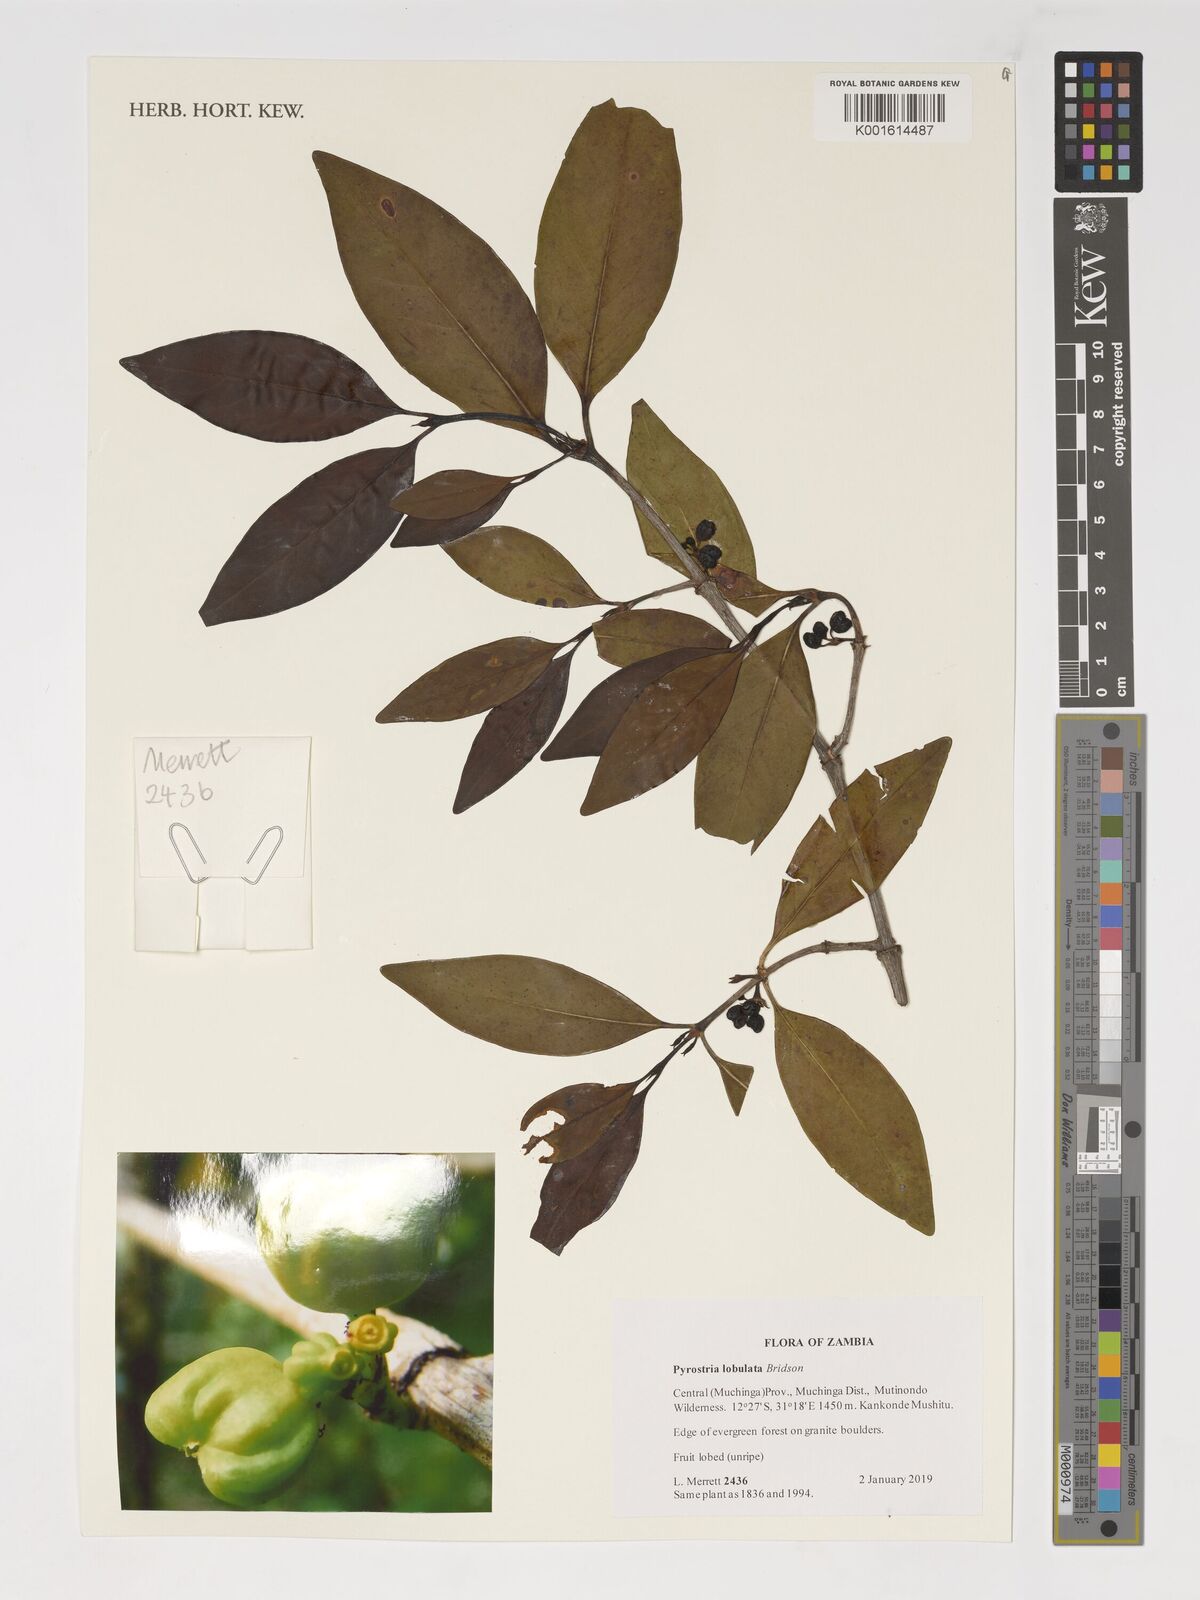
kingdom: Plantae
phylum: Tracheophyta
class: Magnoliopsida
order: Gentianales
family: Rubiaceae
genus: Pyrostria
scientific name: Pyrostria lobulata
